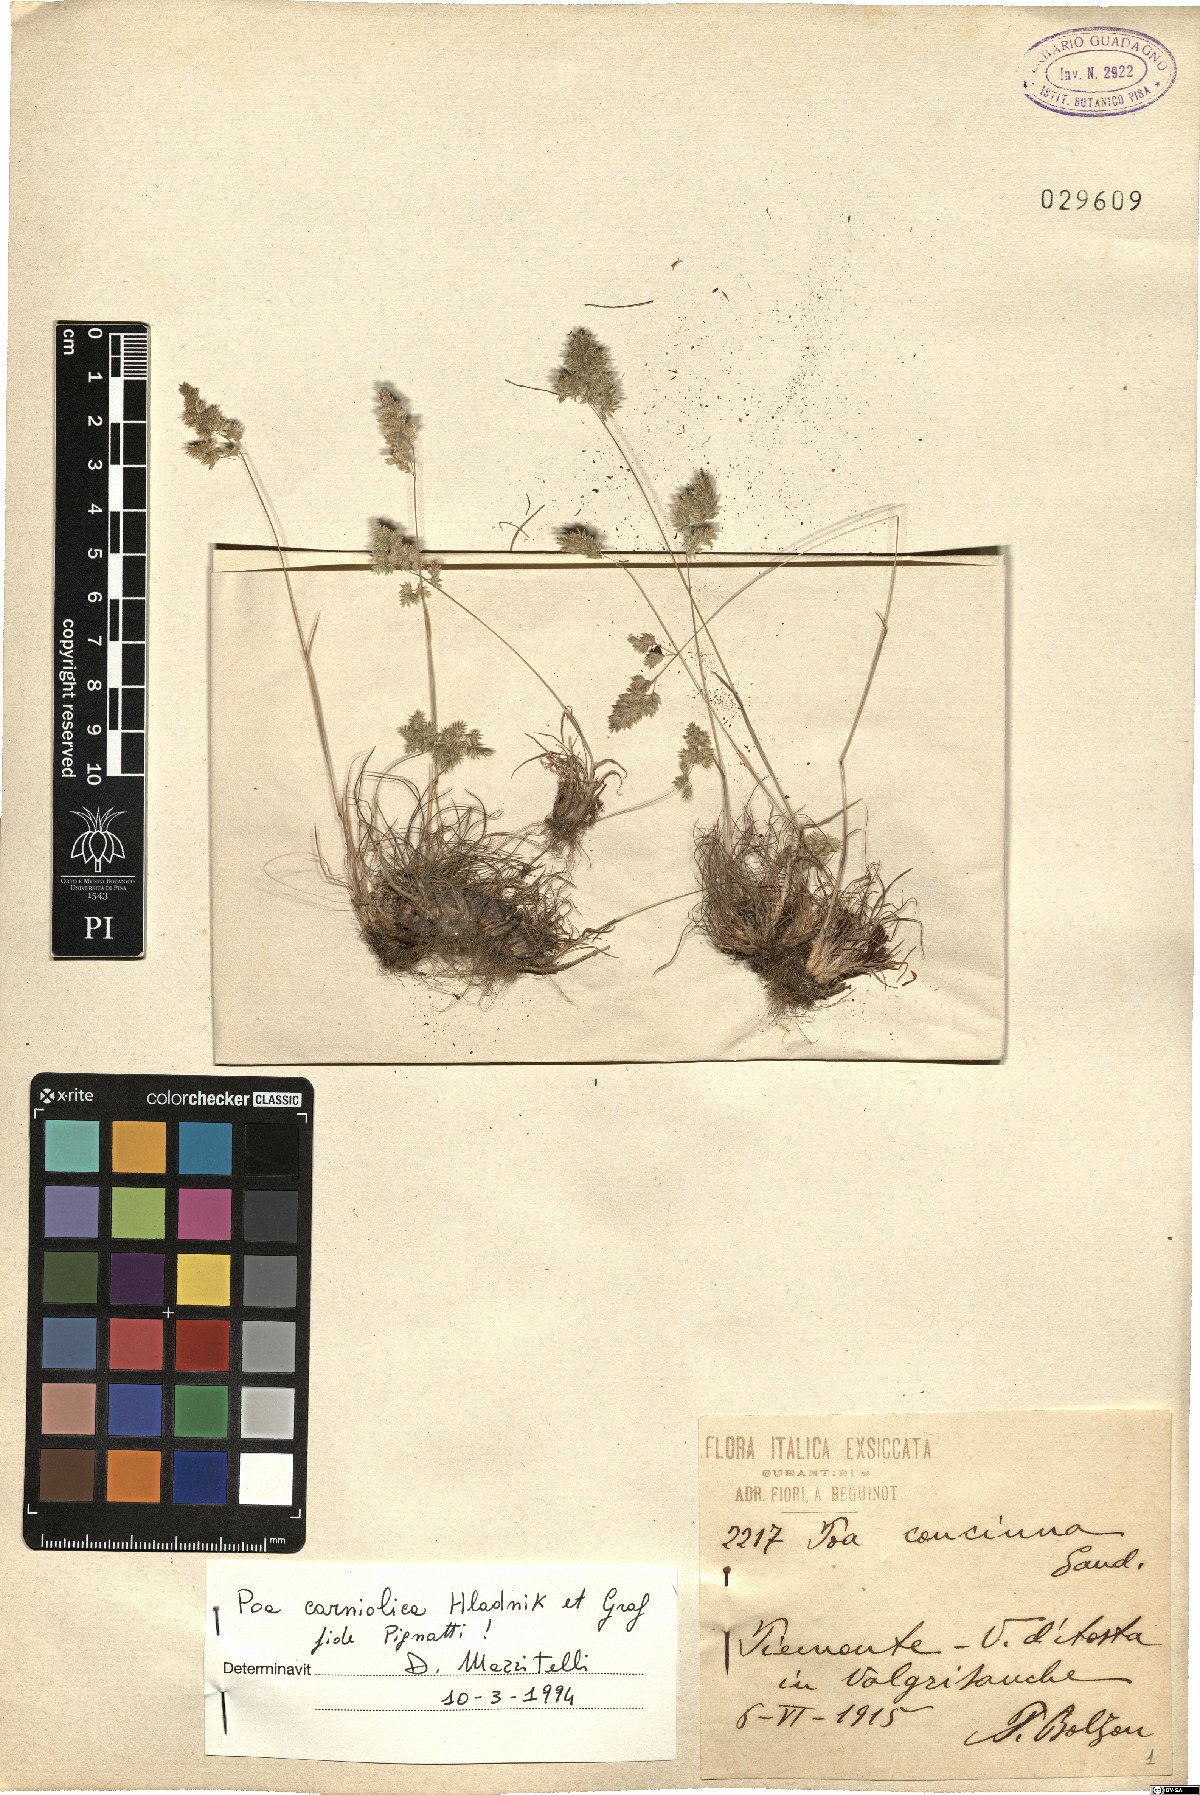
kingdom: Plantae
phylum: Tracheophyta
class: Liliopsida
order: Poales
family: Poaceae
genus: Poa
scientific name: Poa carniolica
